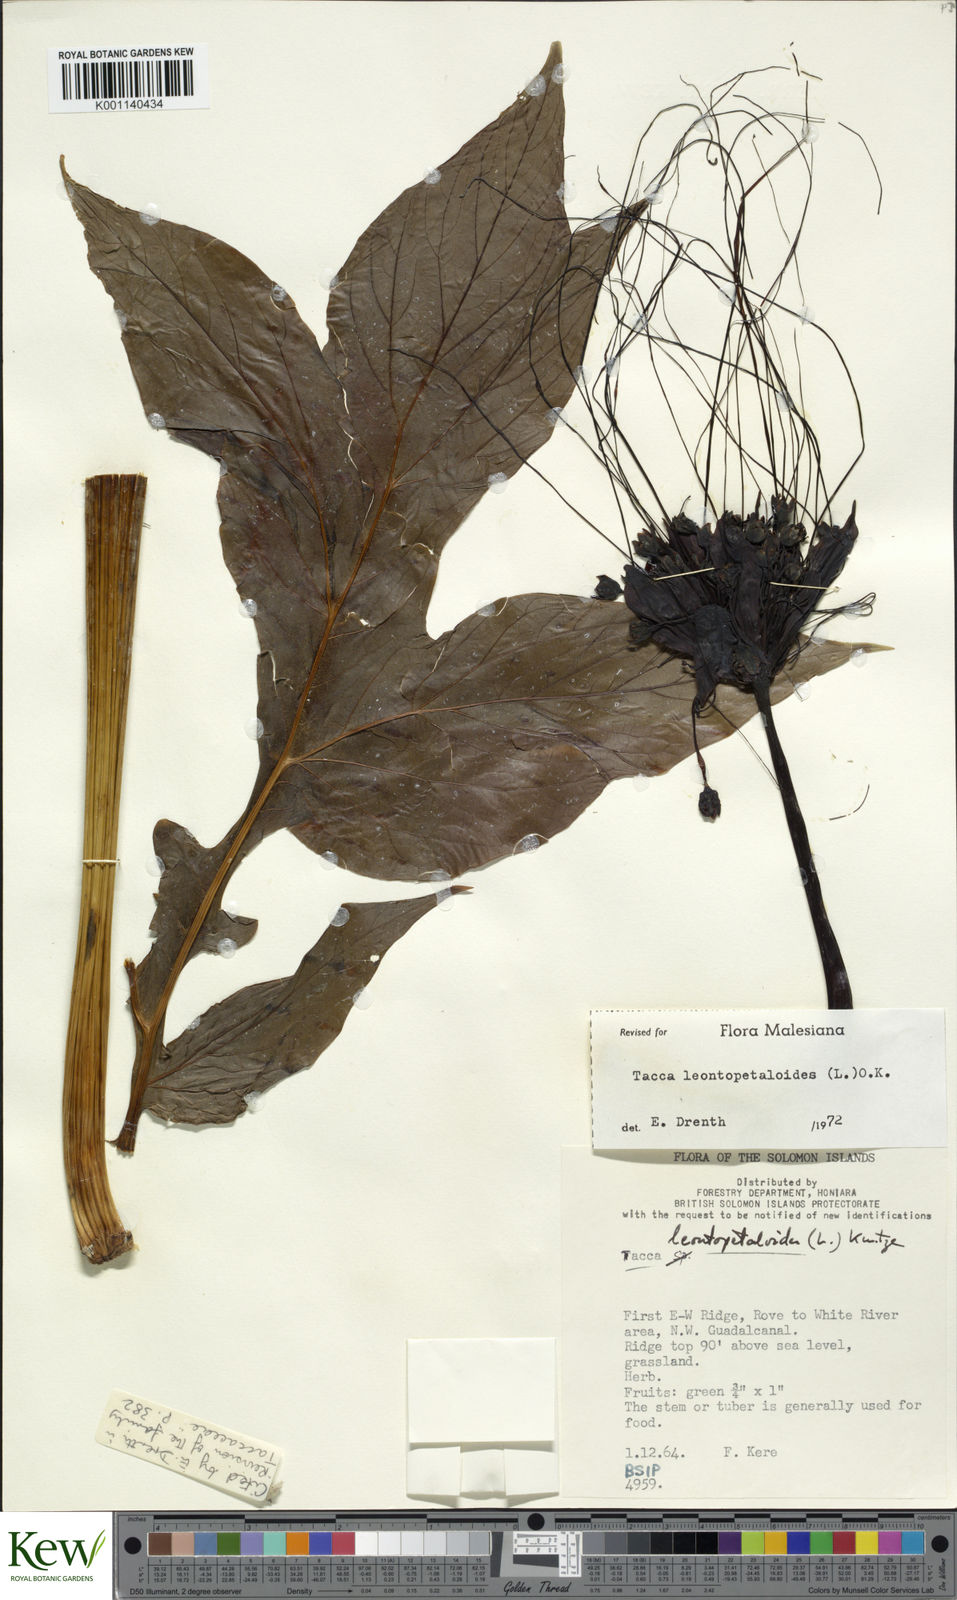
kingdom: Plantae
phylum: Tracheophyta
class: Liliopsida
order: Dioscoreales
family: Dioscoreaceae
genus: Tacca
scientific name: Tacca leontopetaloides
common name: Arrowroot
